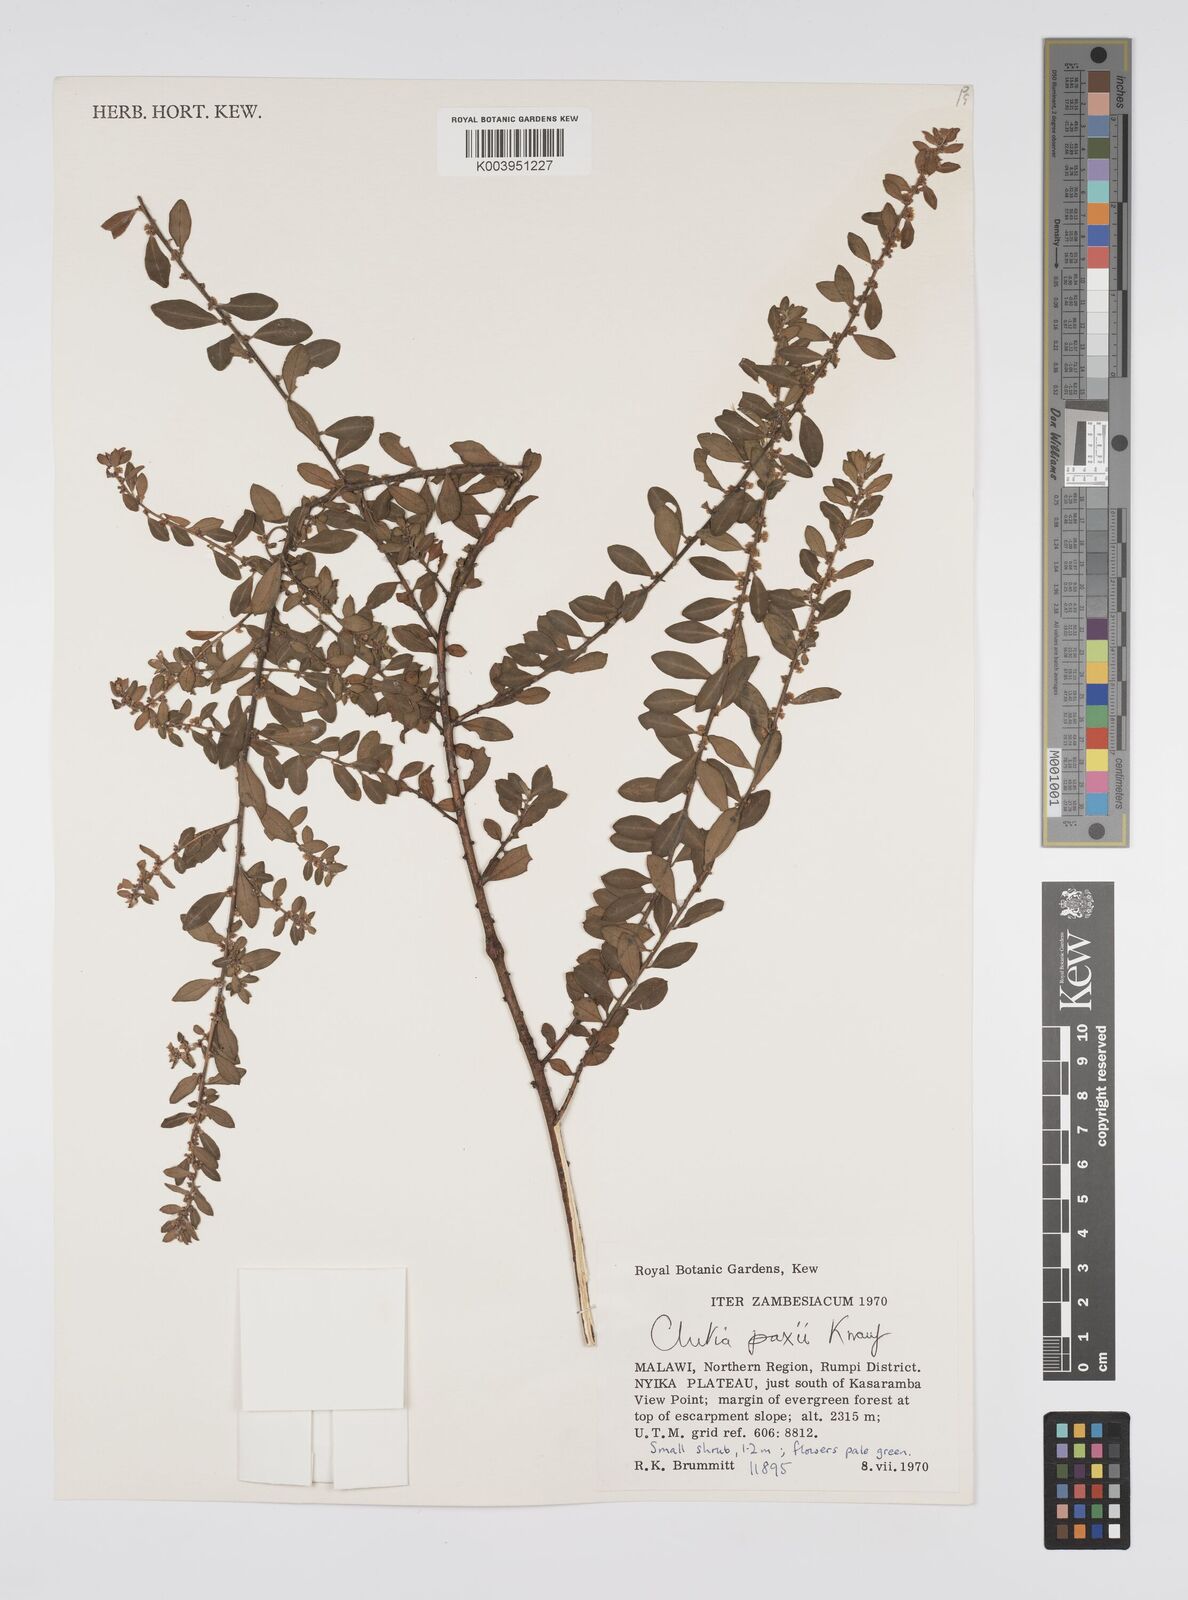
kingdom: Plantae
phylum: Tracheophyta
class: Magnoliopsida
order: Malpighiales
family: Peraceae
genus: Clutia
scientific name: Clutia paxii
